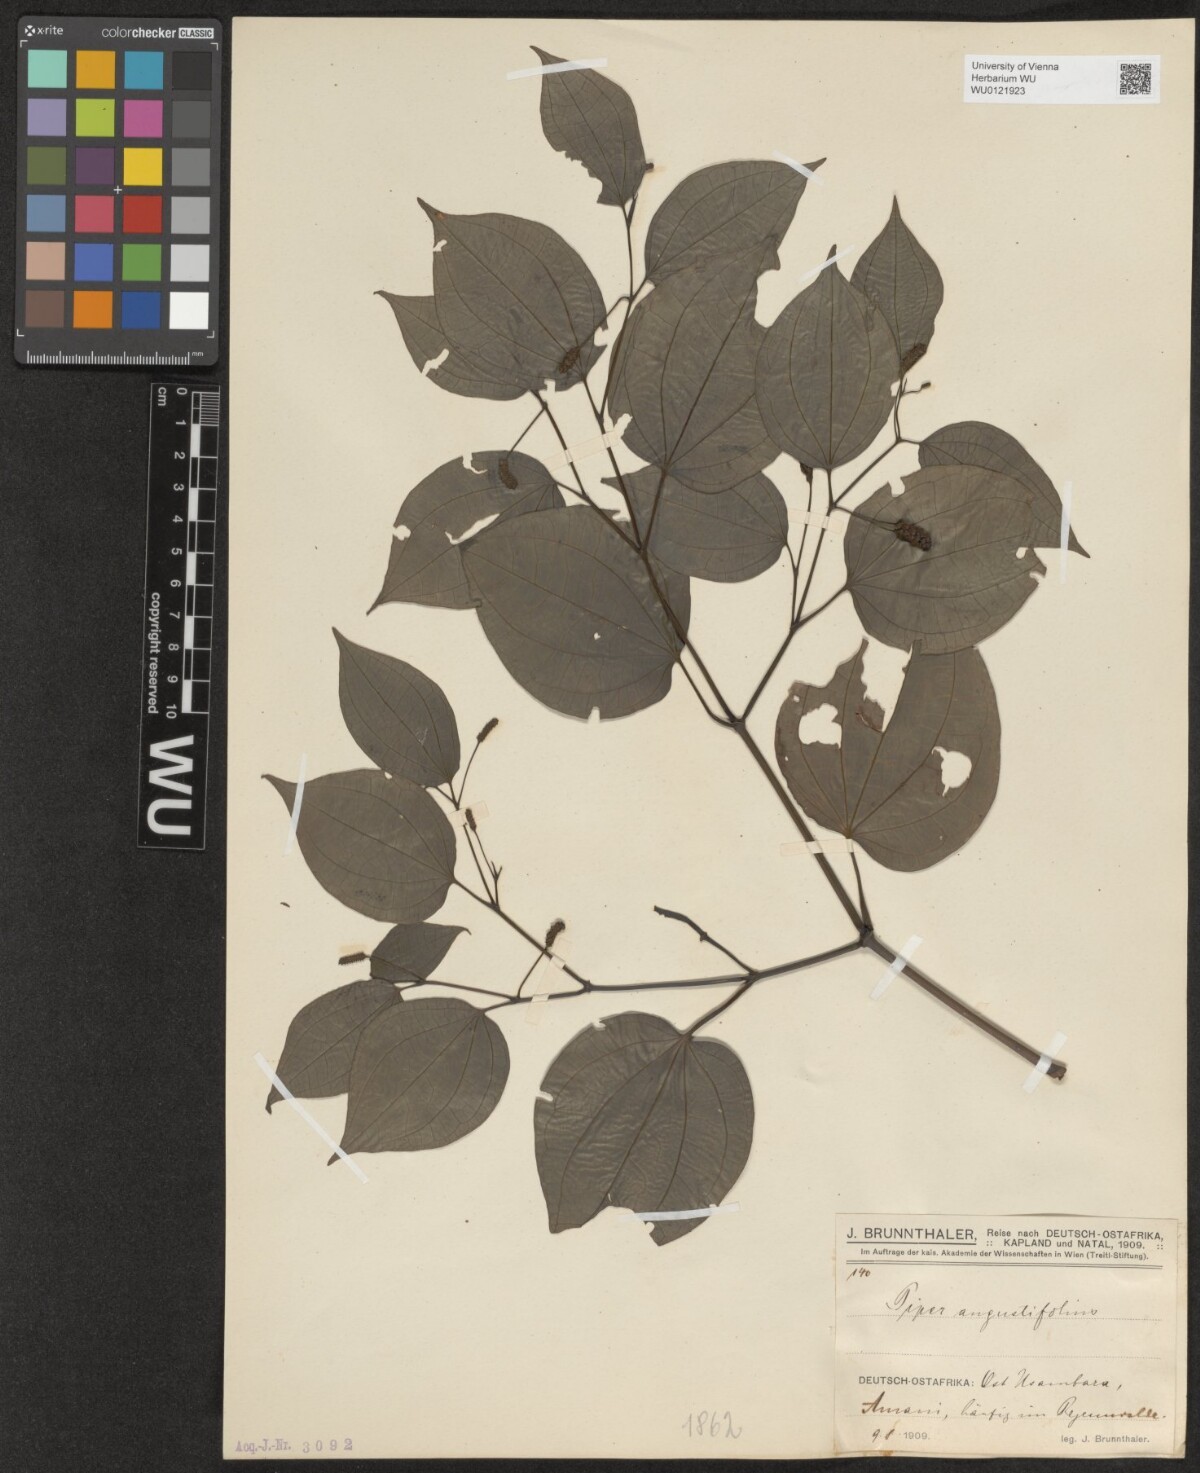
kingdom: Plantae
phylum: Tracheophyta
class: Magnoliopsida
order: Piperales
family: Piperaceae
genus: Piper
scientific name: Piper capense
